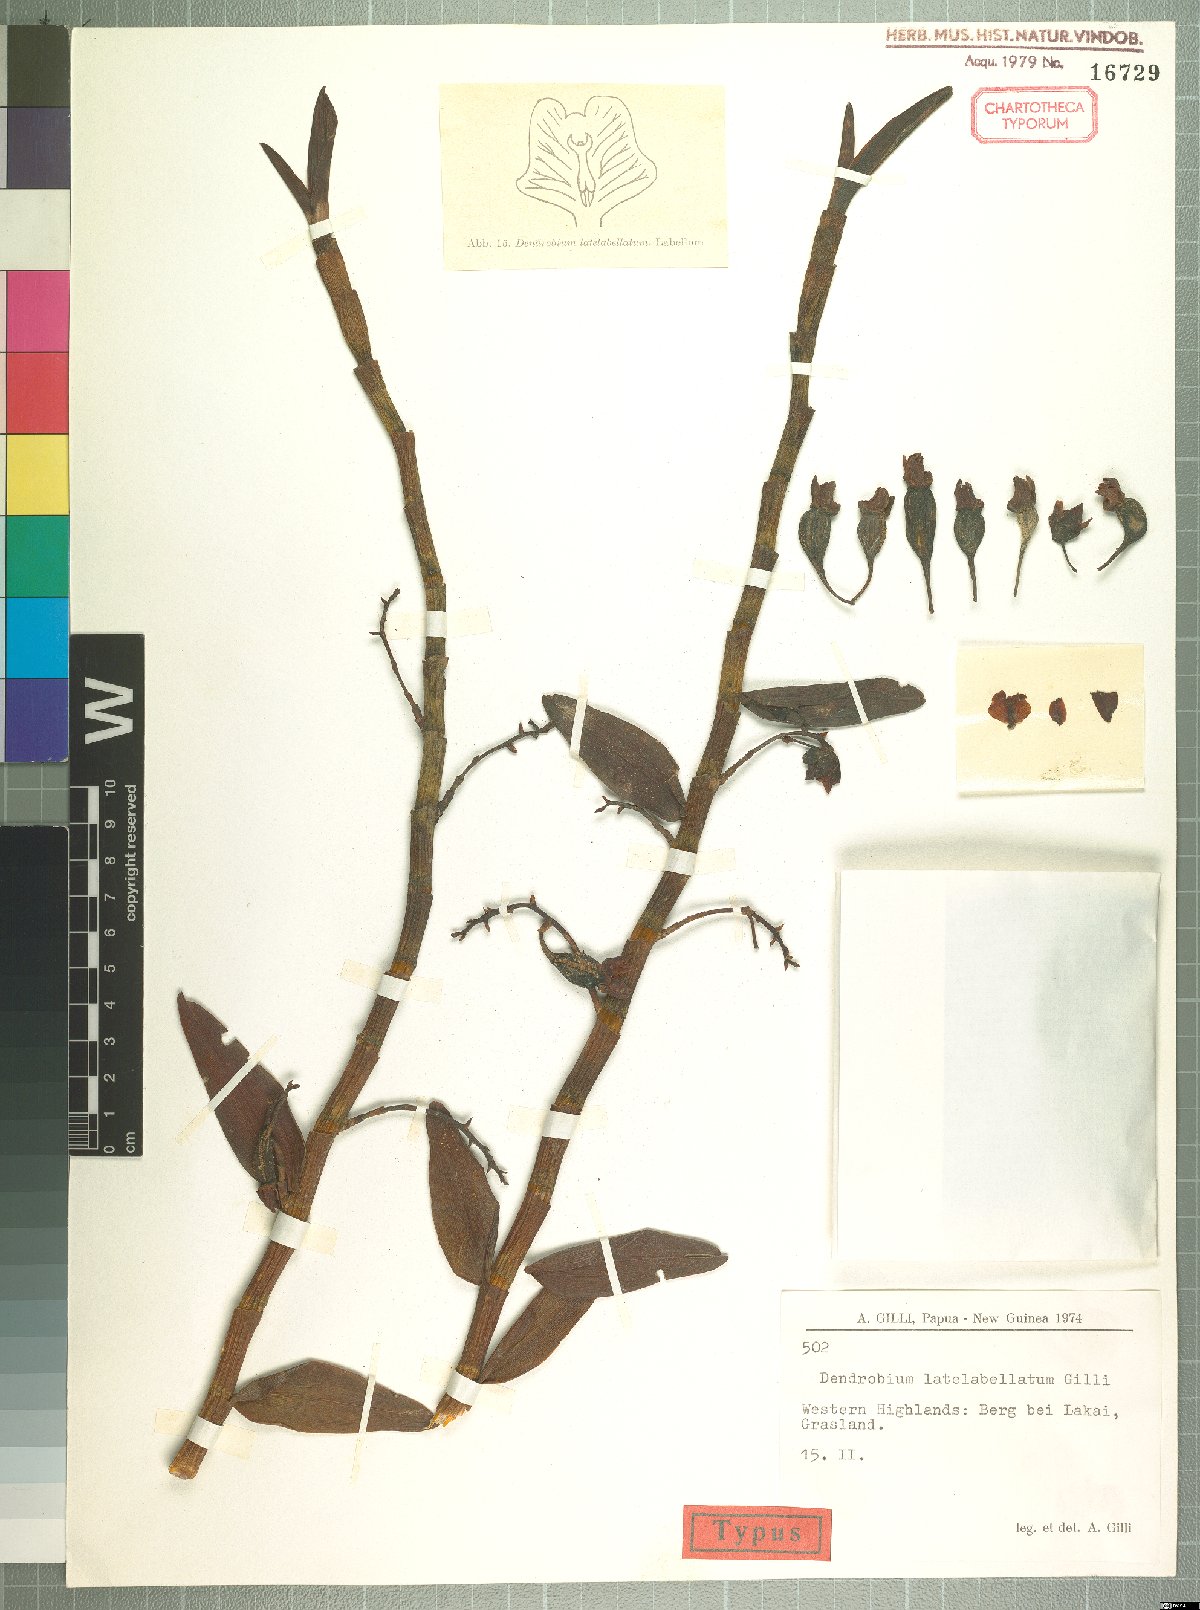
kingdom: Plantae
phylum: Tracheophyta
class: Liliopsida
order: Asparagales
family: Orchidaceae
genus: Dendrobium
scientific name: Dendrobium latelabellatum
